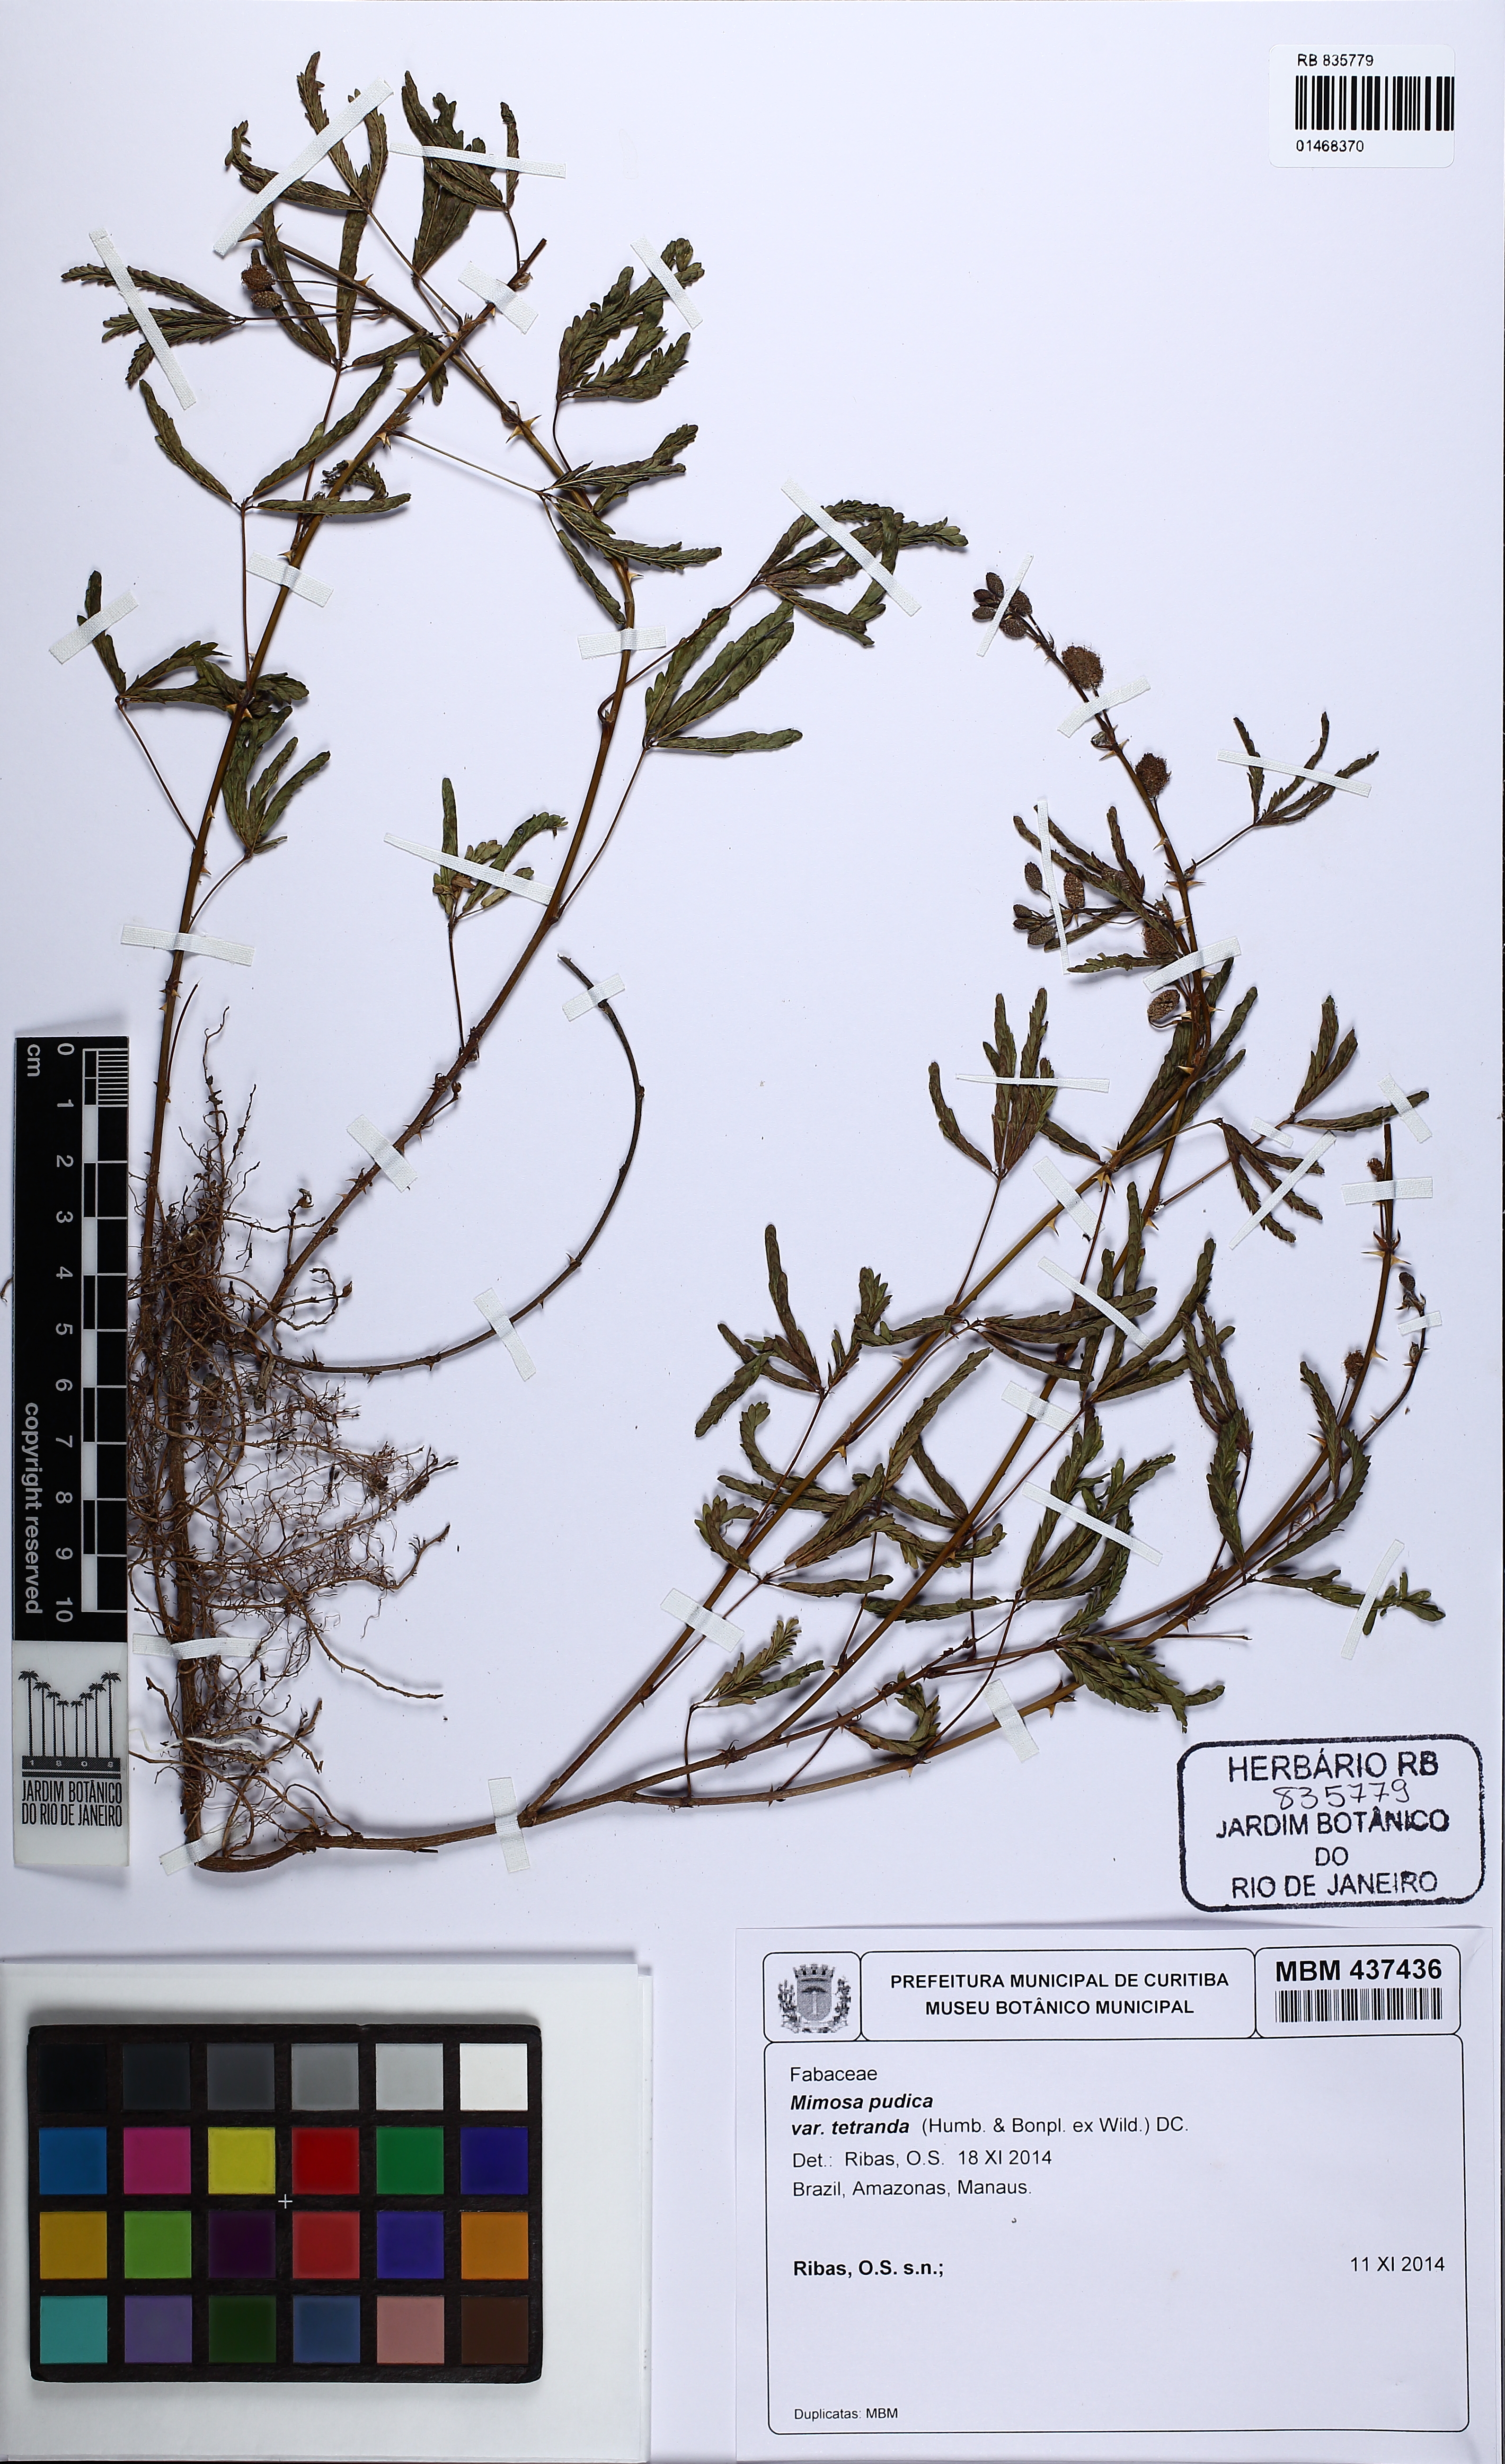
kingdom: Plantae
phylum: Tracheophyta
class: Magnoliopsida
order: Fabales
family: Fabaceae
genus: Mimosa
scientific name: Mimosa pudica
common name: Sensitive plant
